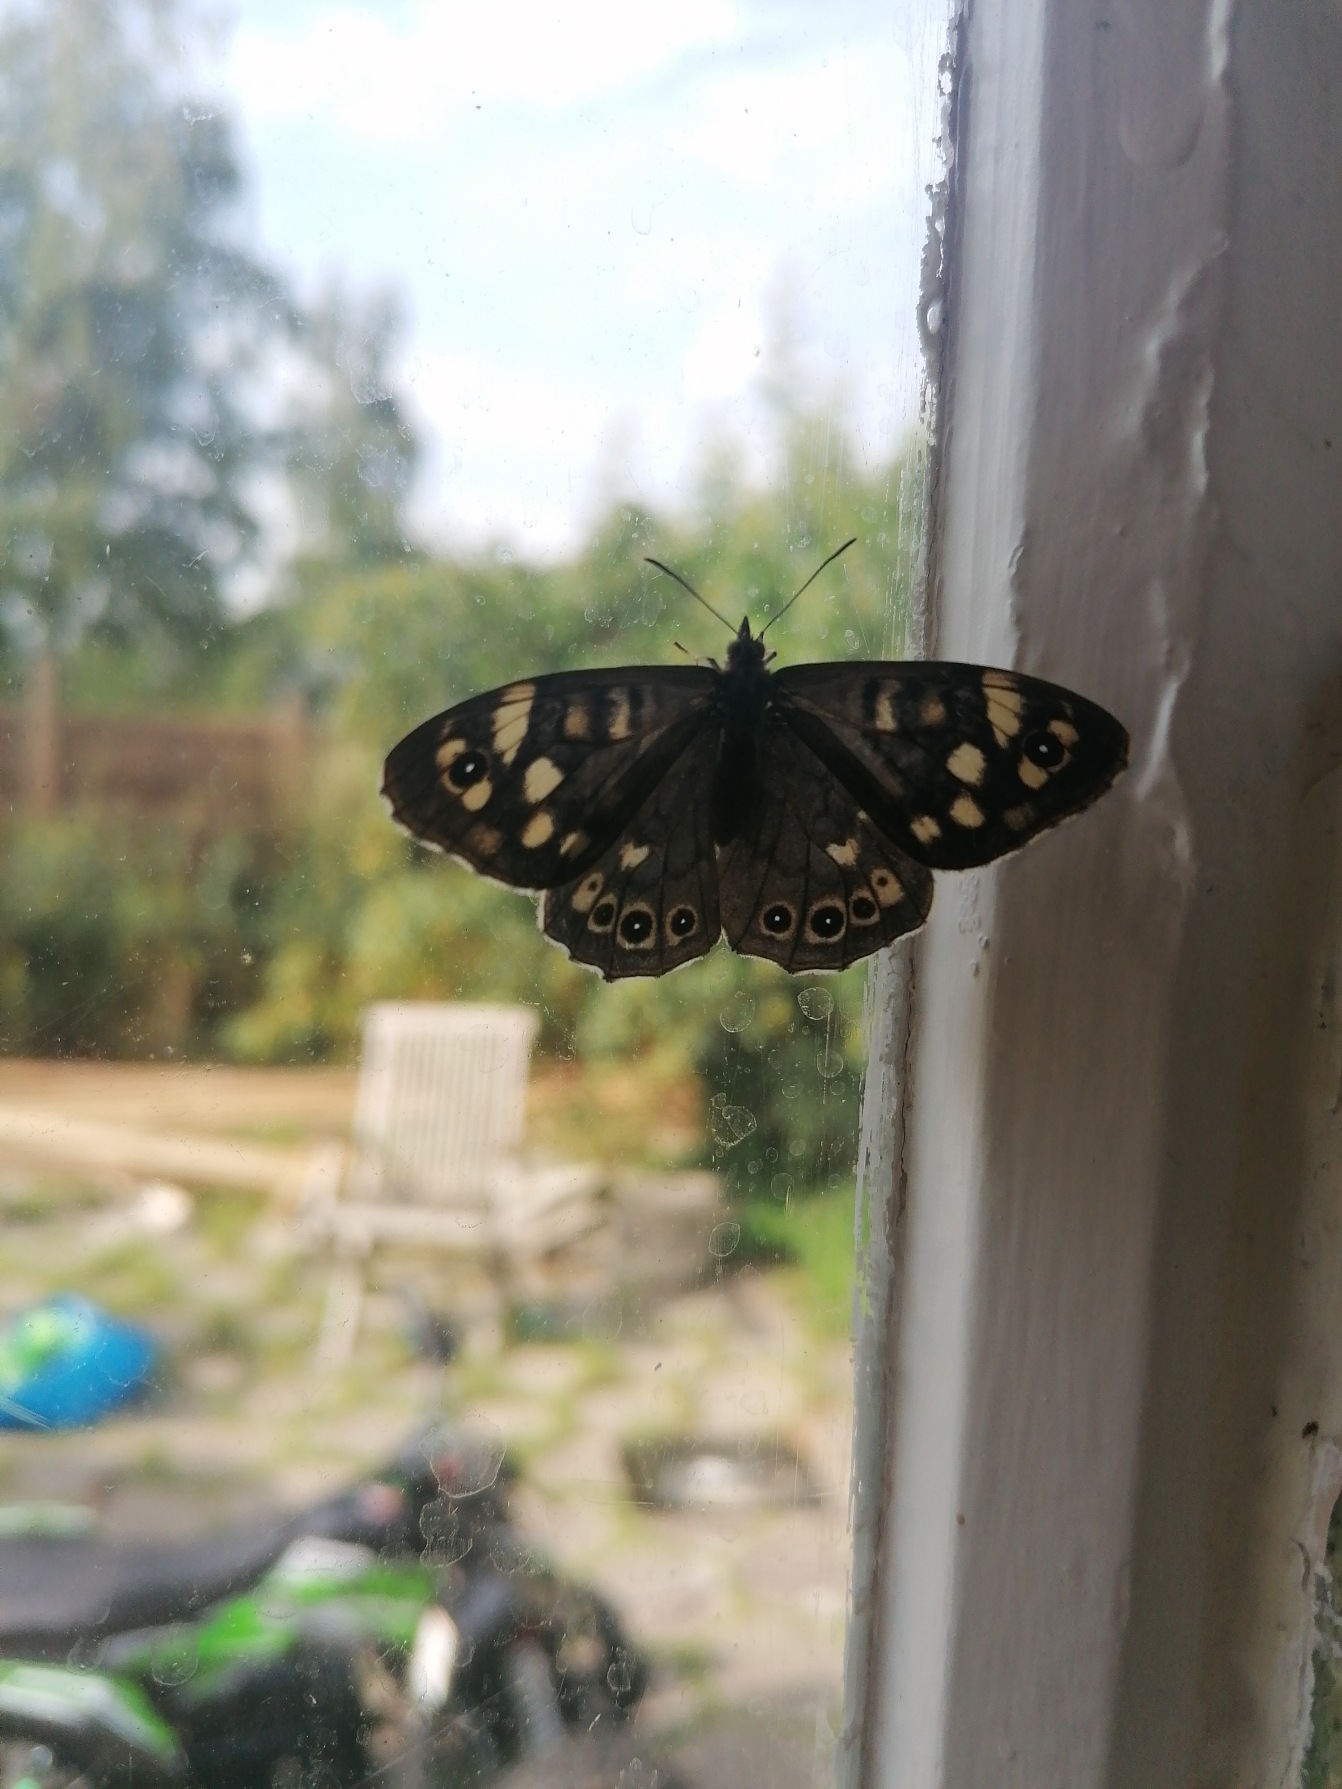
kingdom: Animalia
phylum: Arthropoda
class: Insecta
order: Lepidoptera
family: Nymphalidae
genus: Pararge
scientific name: Pararge aegeria
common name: Skovrandøje
